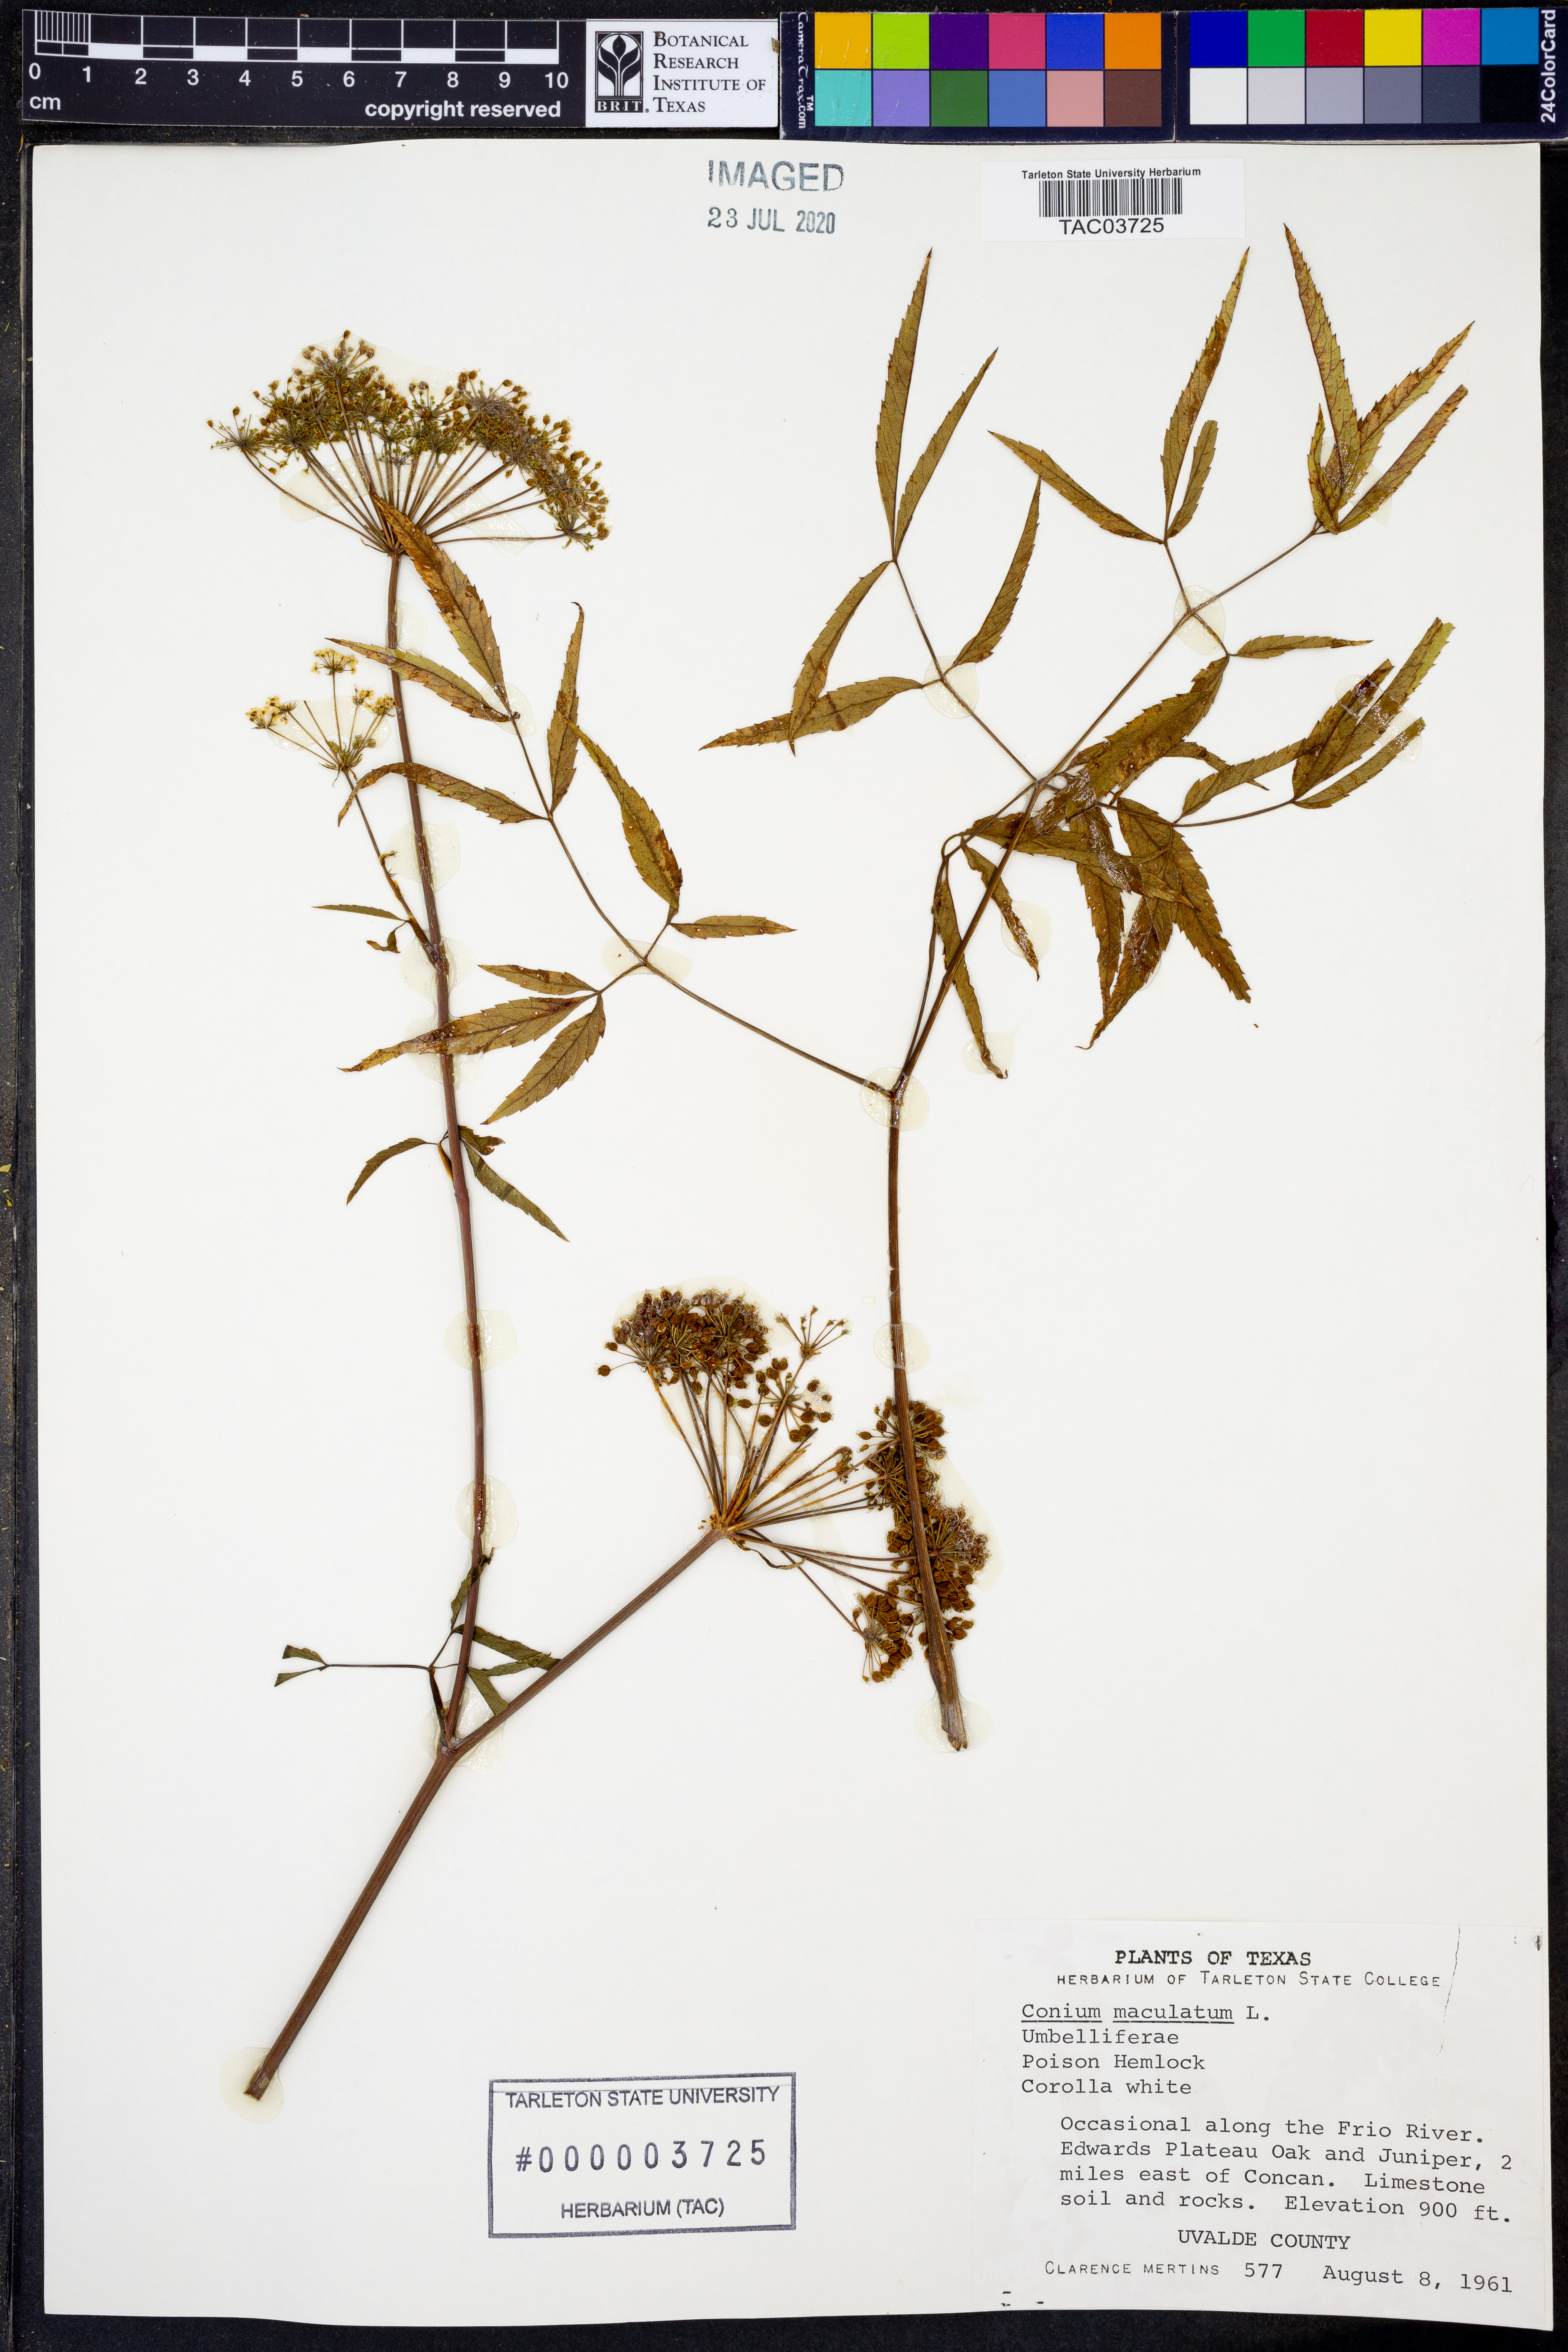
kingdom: Plantae
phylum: Tracheophyta
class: Magnoliopsida
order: Apiales
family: Apiaceae
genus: Conium
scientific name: Conium maculatum
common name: Hemlock
